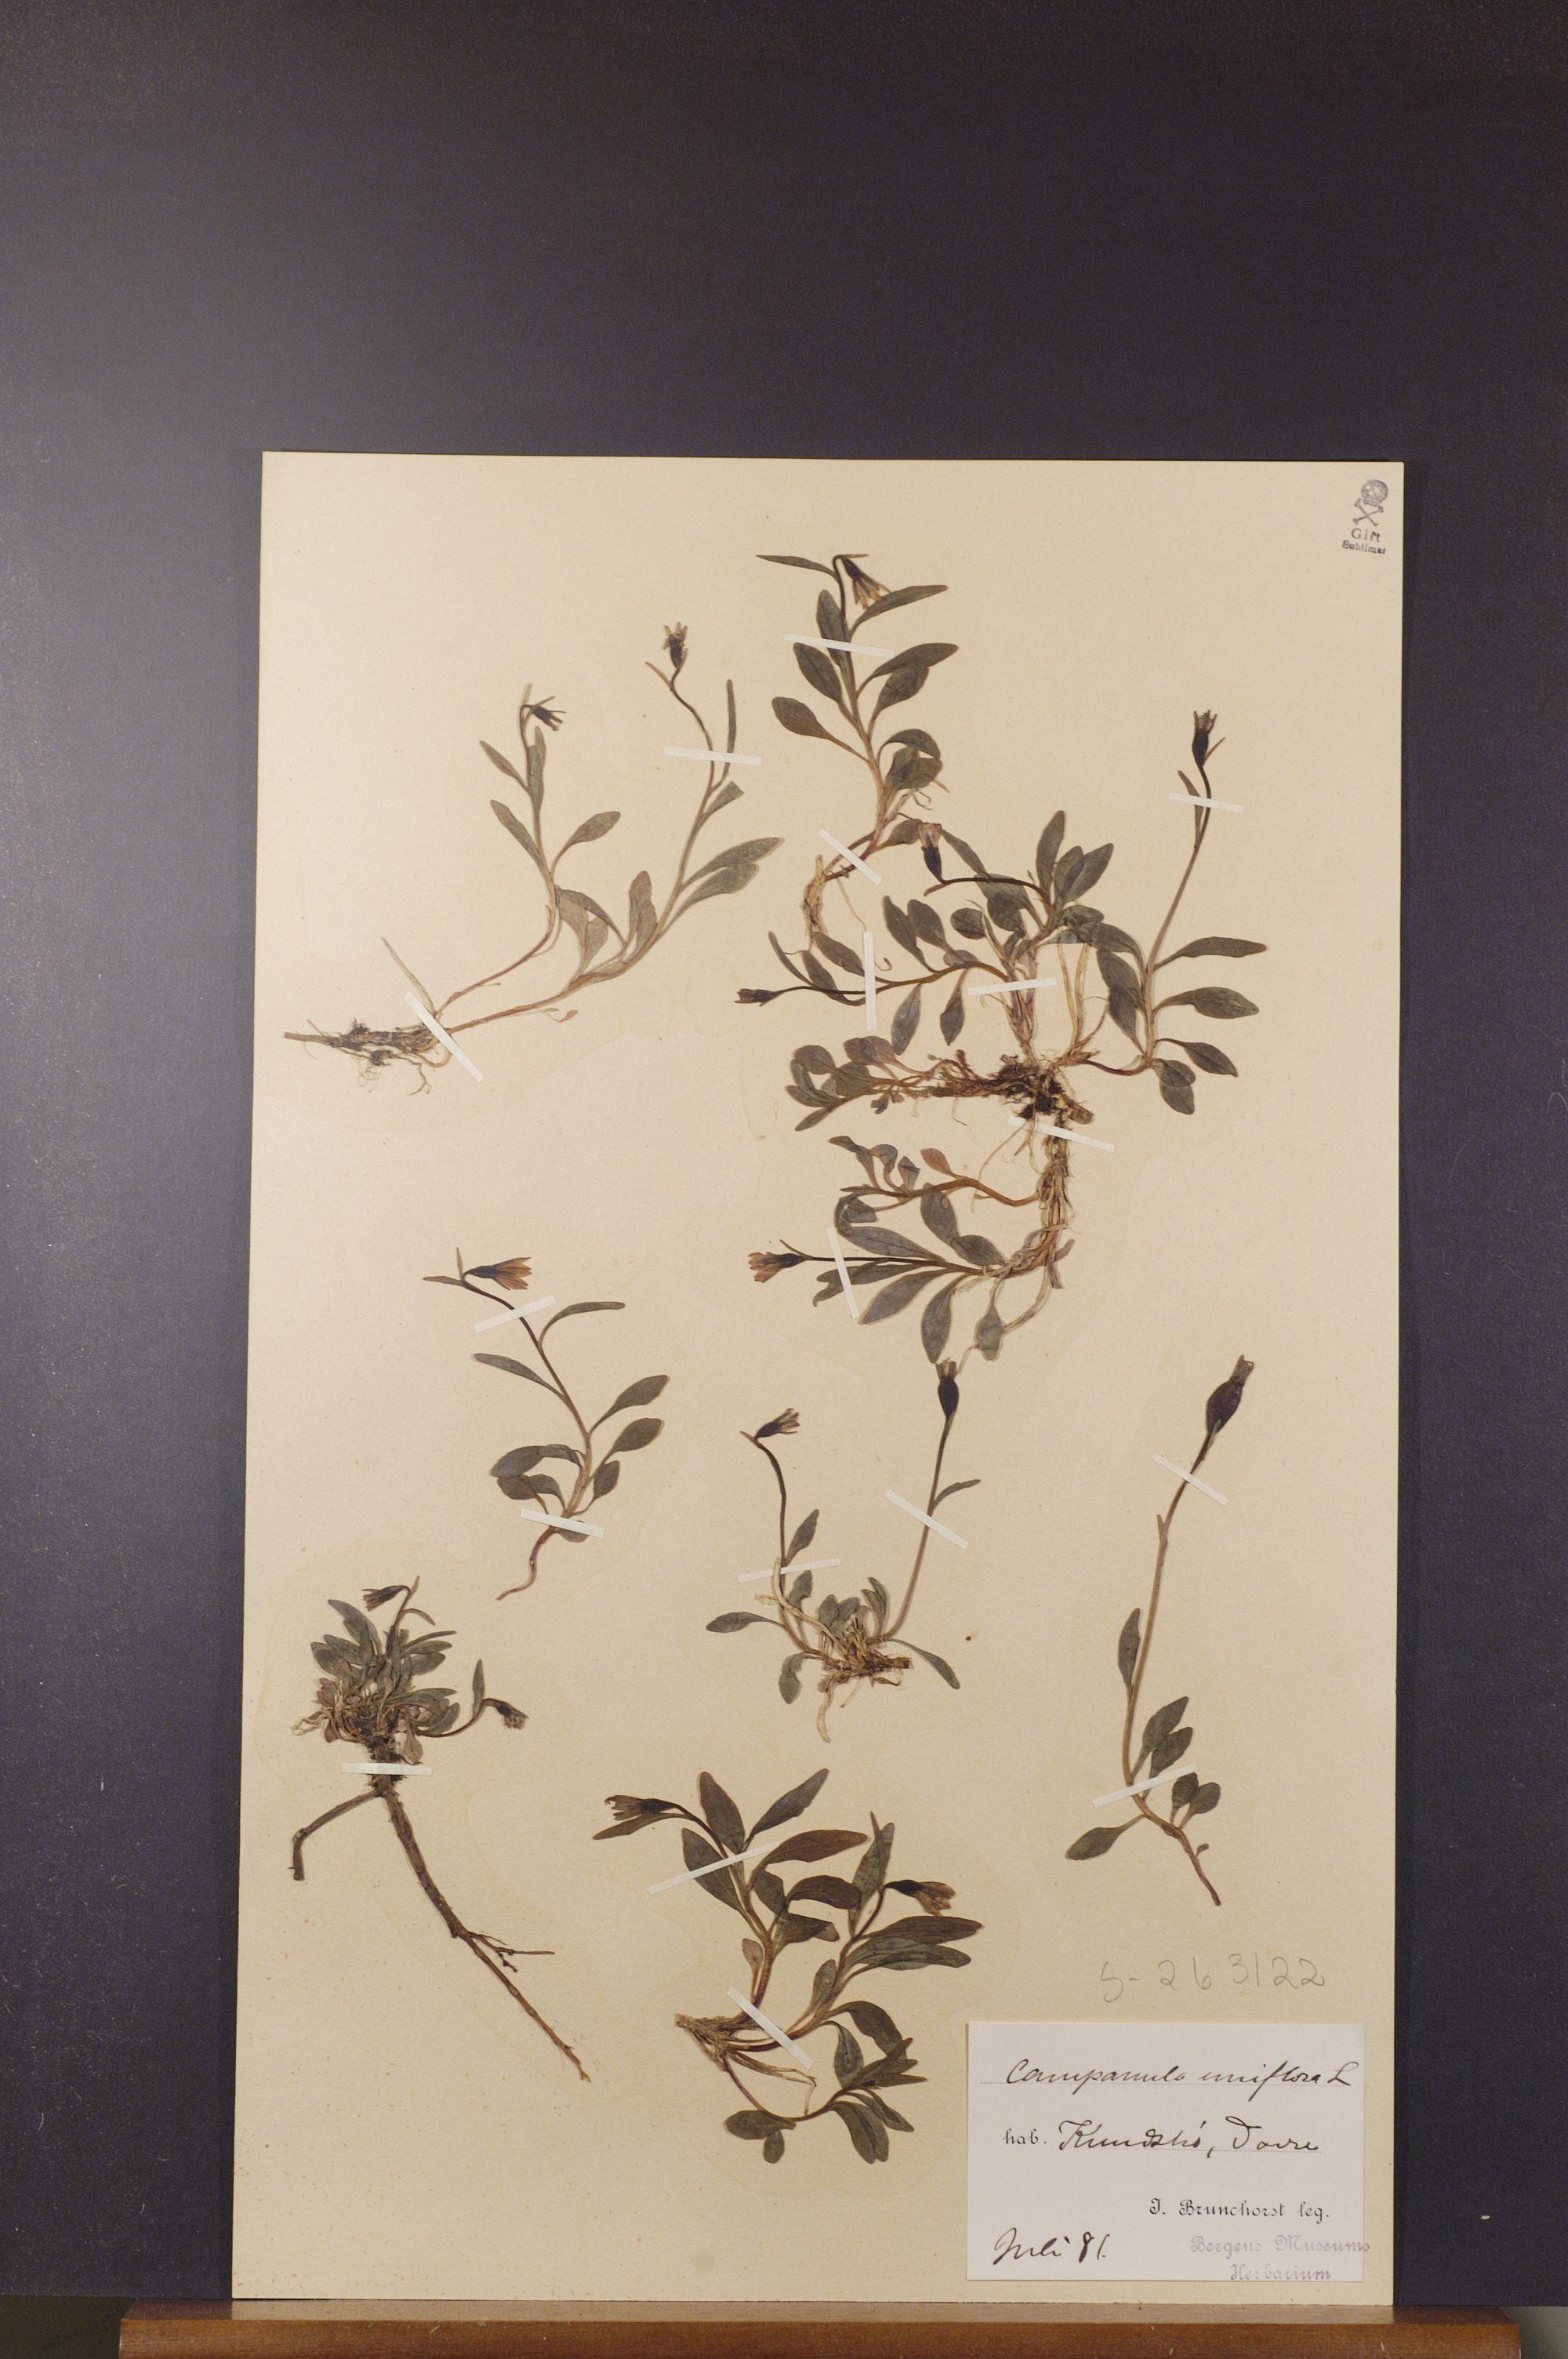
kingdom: Plantae
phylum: Tracheophyta
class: Magnoliopsida
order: Asterales
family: Campanulaceae
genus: Melanocalyx
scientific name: Melanocalyx uniflora
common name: Alpine harebell
